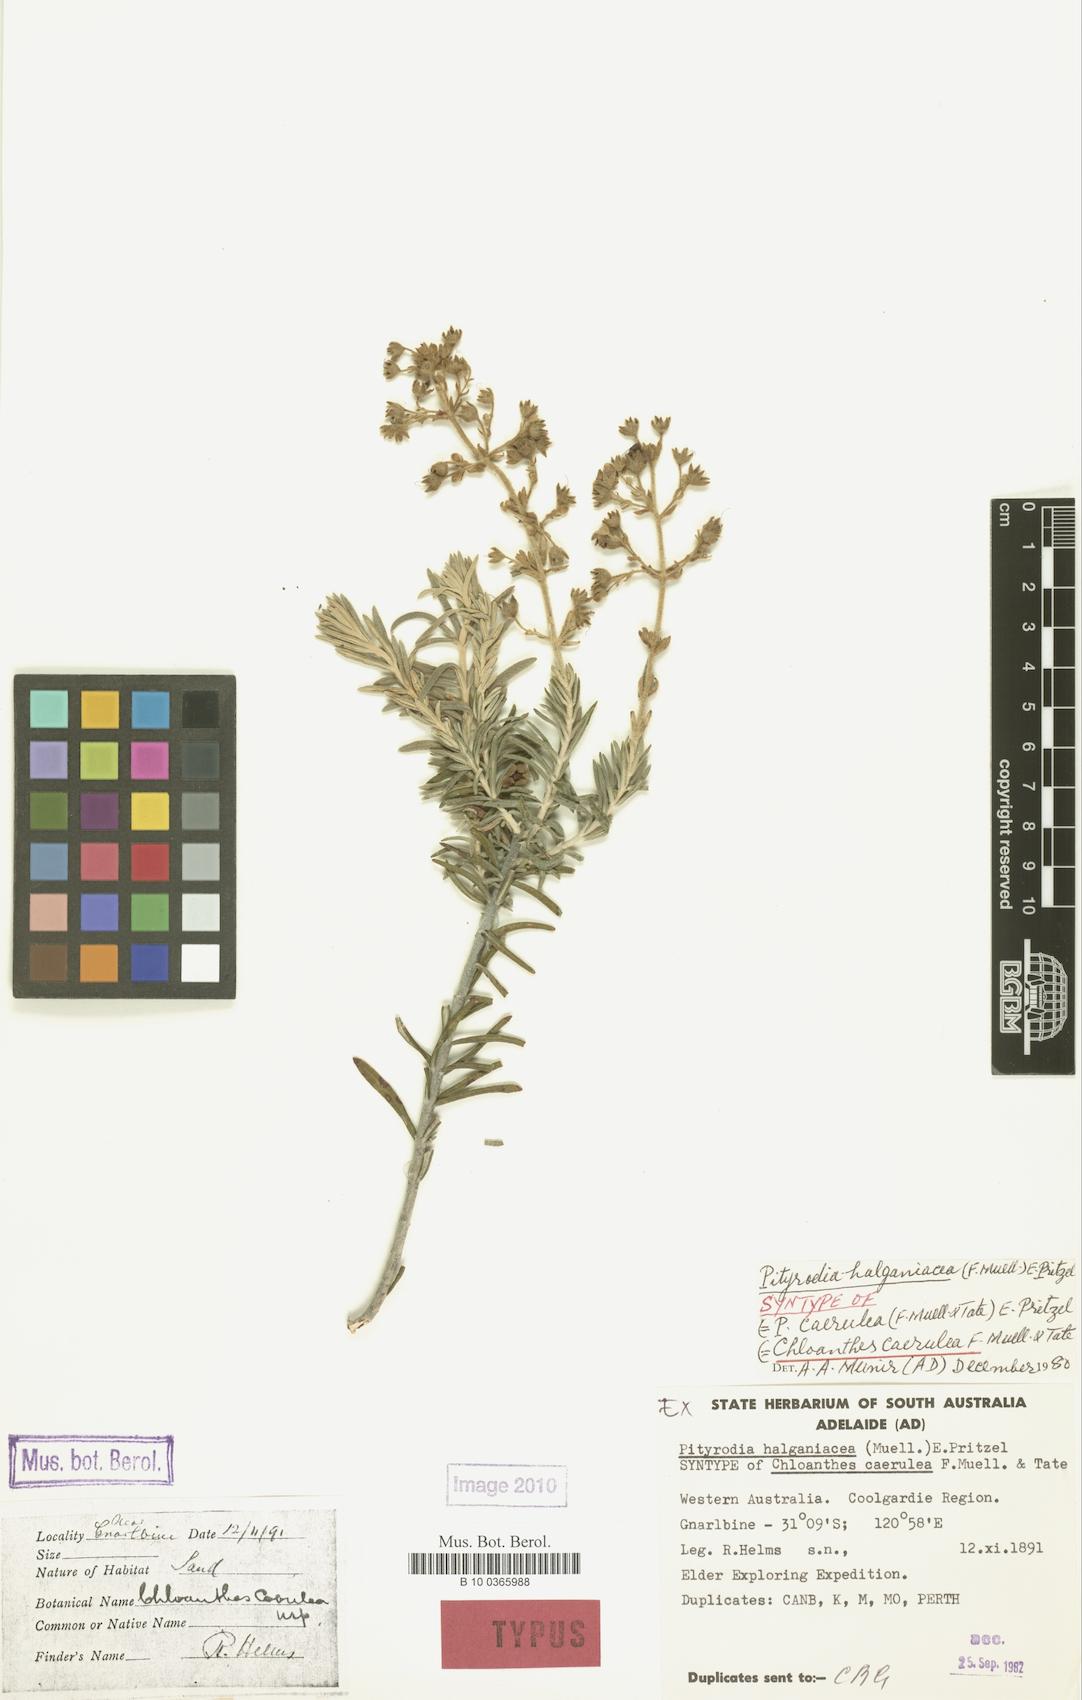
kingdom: Plantae
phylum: Tracheophyta
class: Magnoliopsida
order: Lamiales
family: Lamiaceae
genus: Brachysola
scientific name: Brachysola halganiacea
